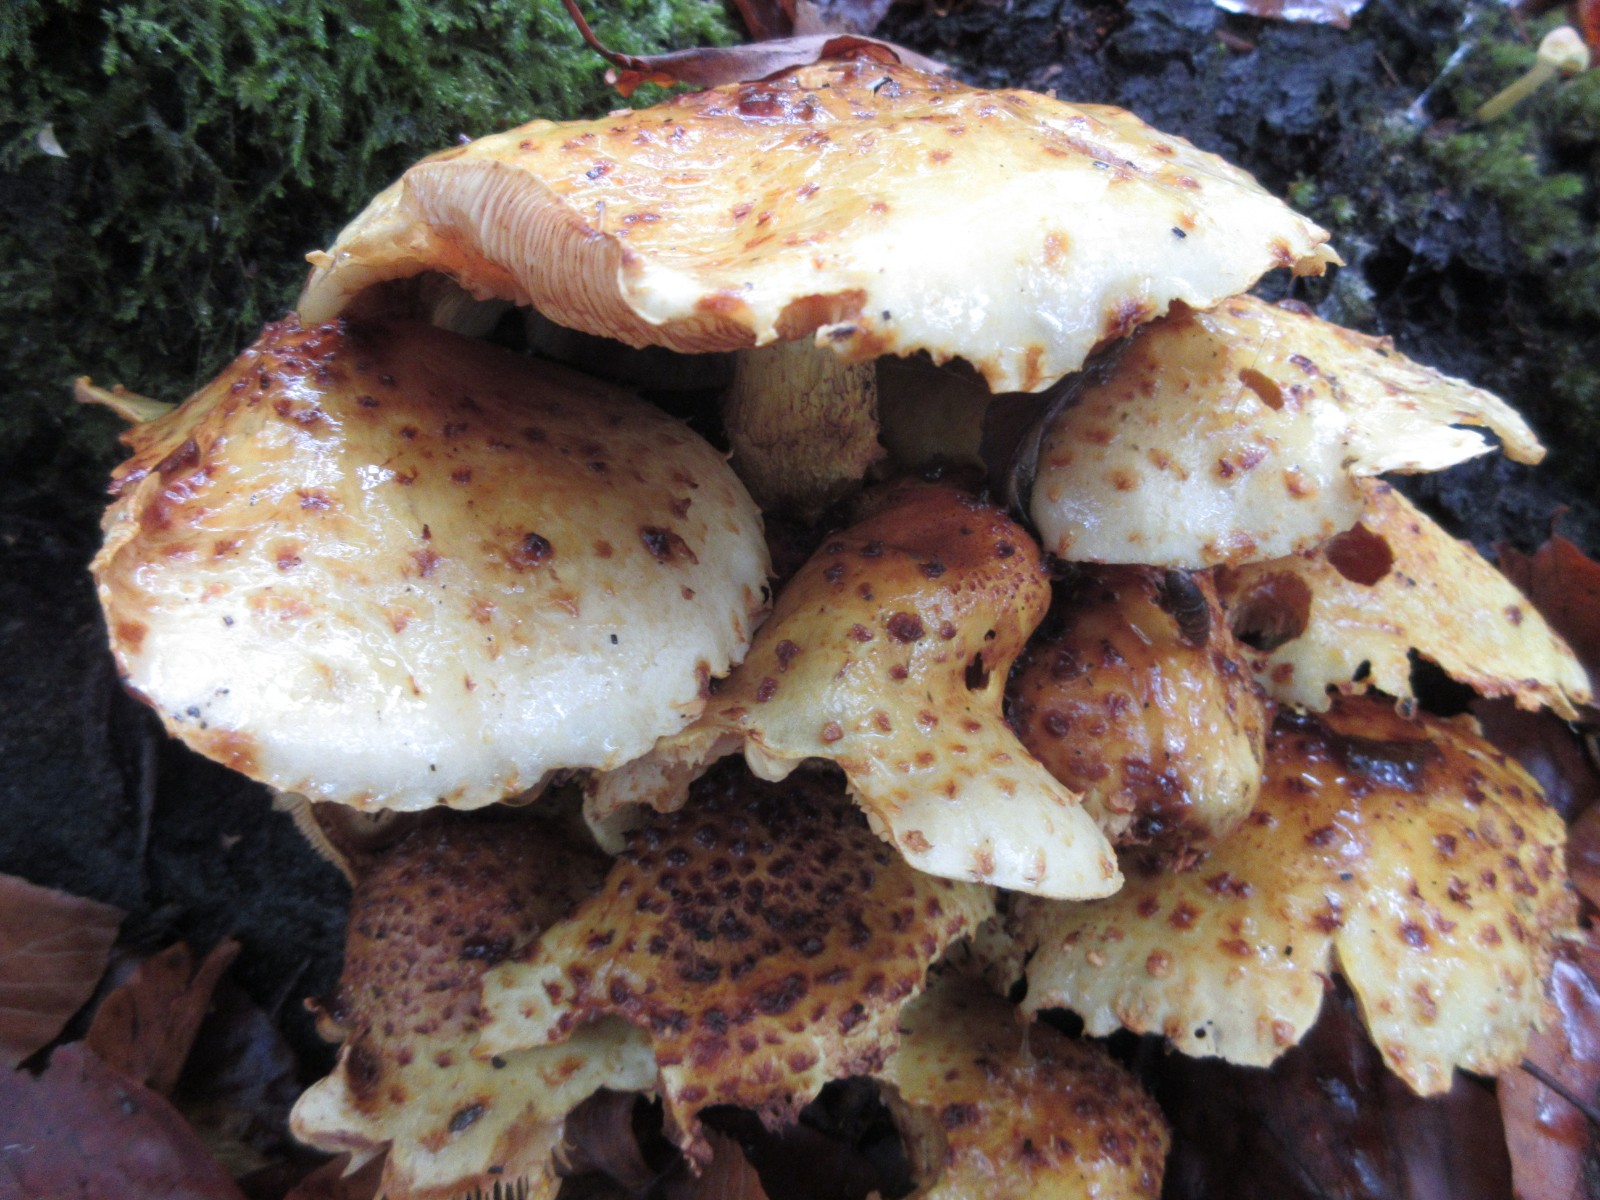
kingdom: Fungi
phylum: Basidiomycota
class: Agaricomycetes
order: Agaricales
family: Strophariaceae
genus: Pholiota
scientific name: Pholiota jahnii
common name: slimet skælhat
